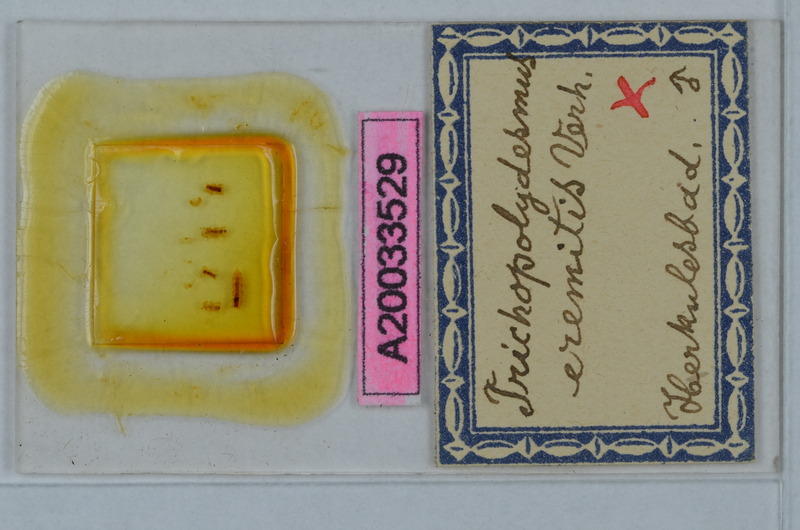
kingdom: Animalia
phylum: Arthropoda
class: Diplopoda
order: Polydesmida
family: Trichopolydesmidae
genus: Trichopolydesmus
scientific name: Trichopolydesmus eremitis
